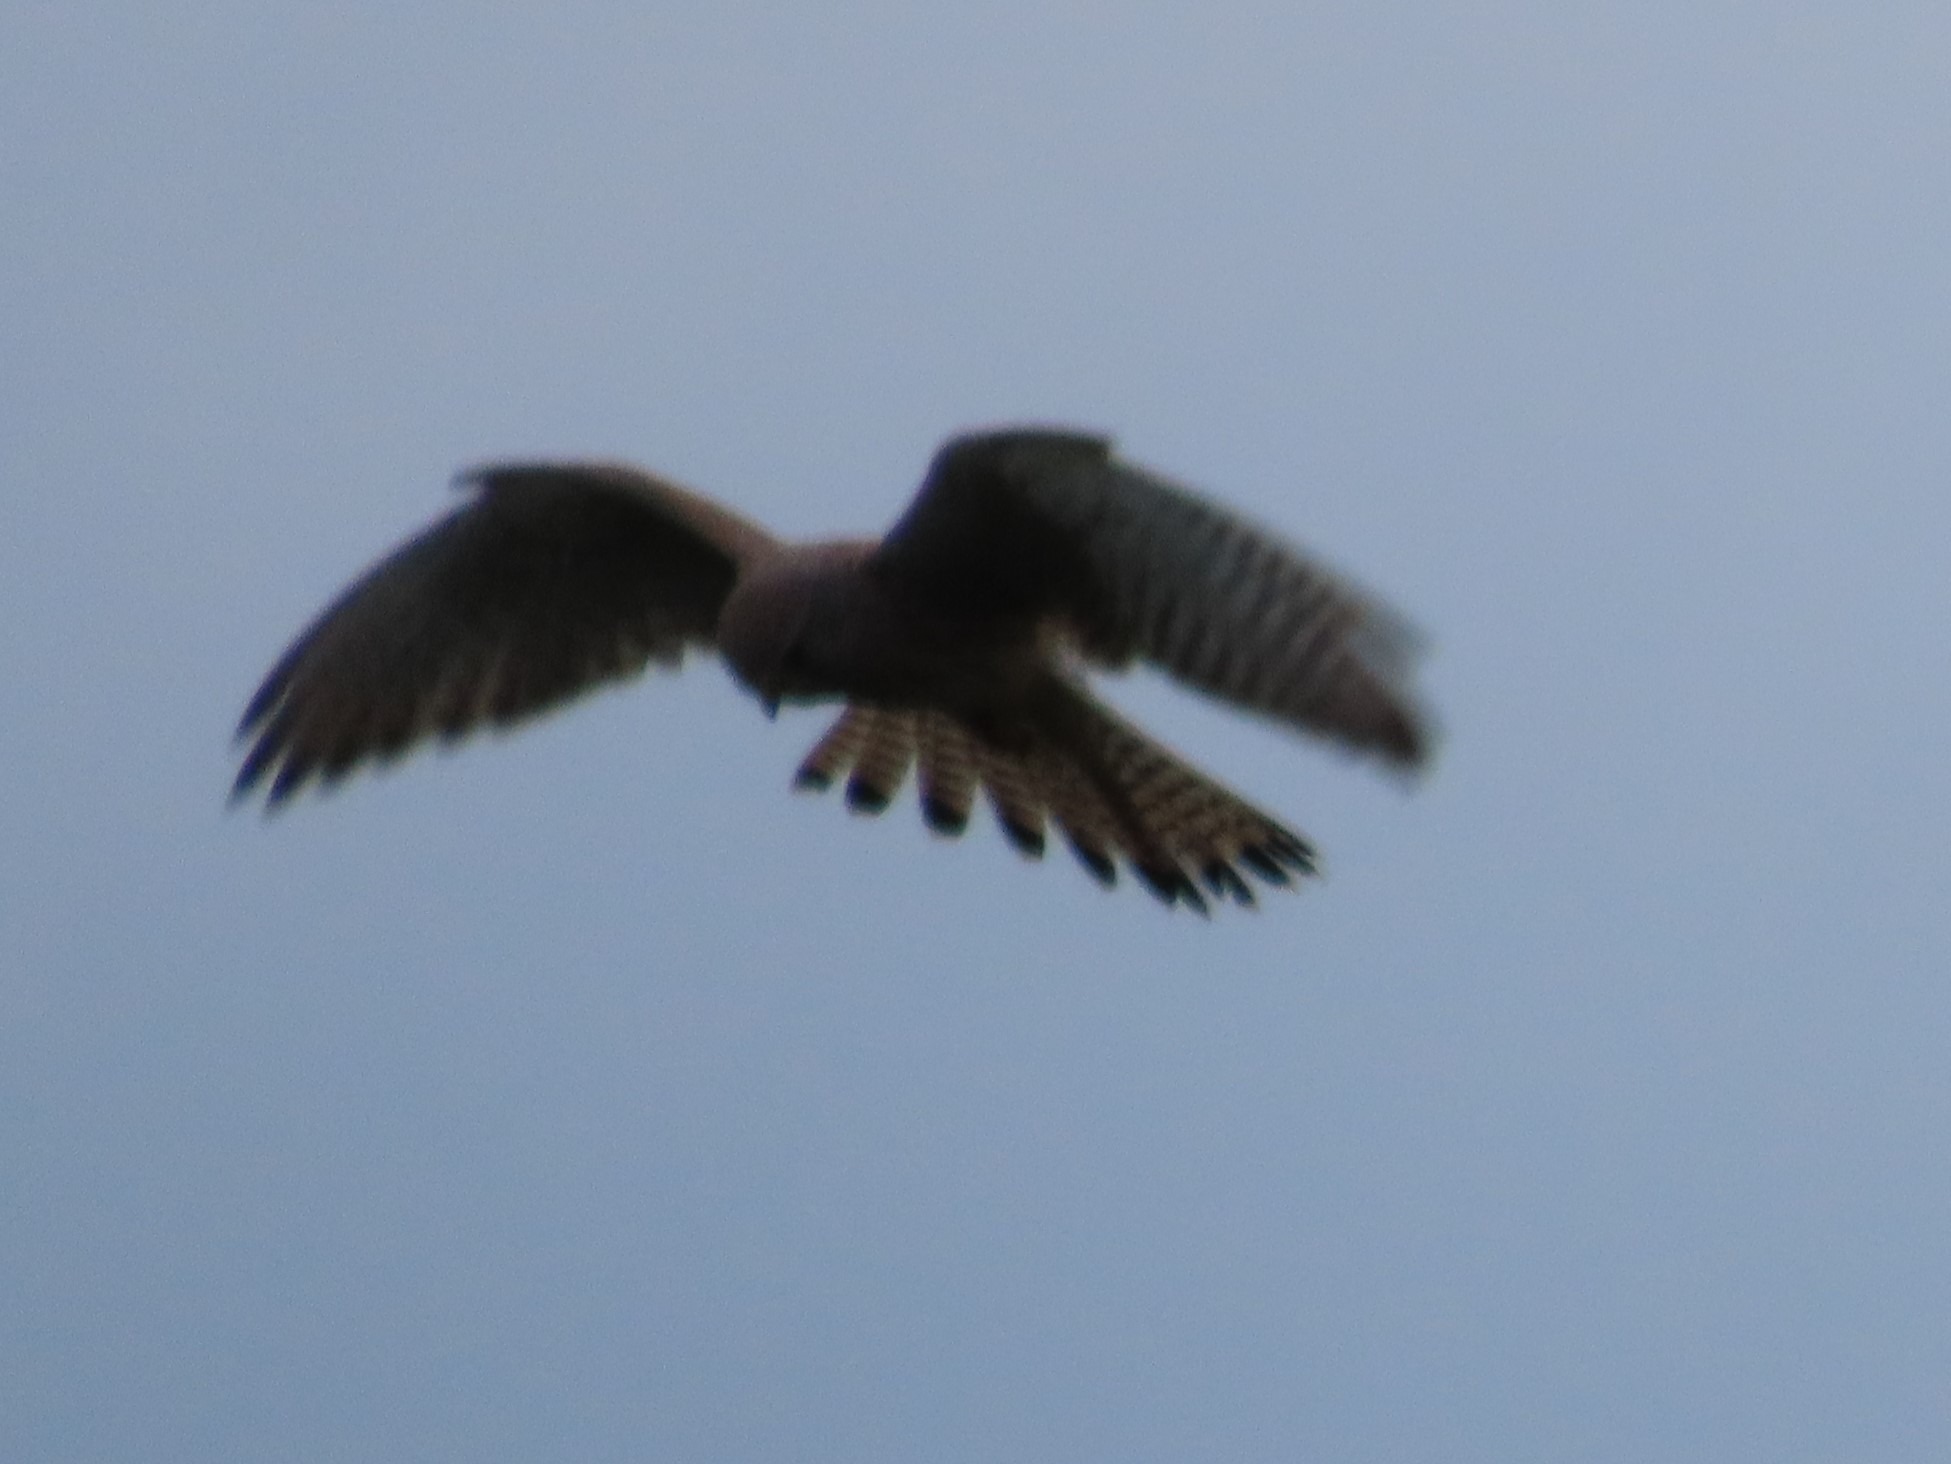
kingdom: Animalia
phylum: Chordata
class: Aves
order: Falconiformes
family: Falconidae
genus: Falco
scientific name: Falco tinnunculus
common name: Tårnfalk
